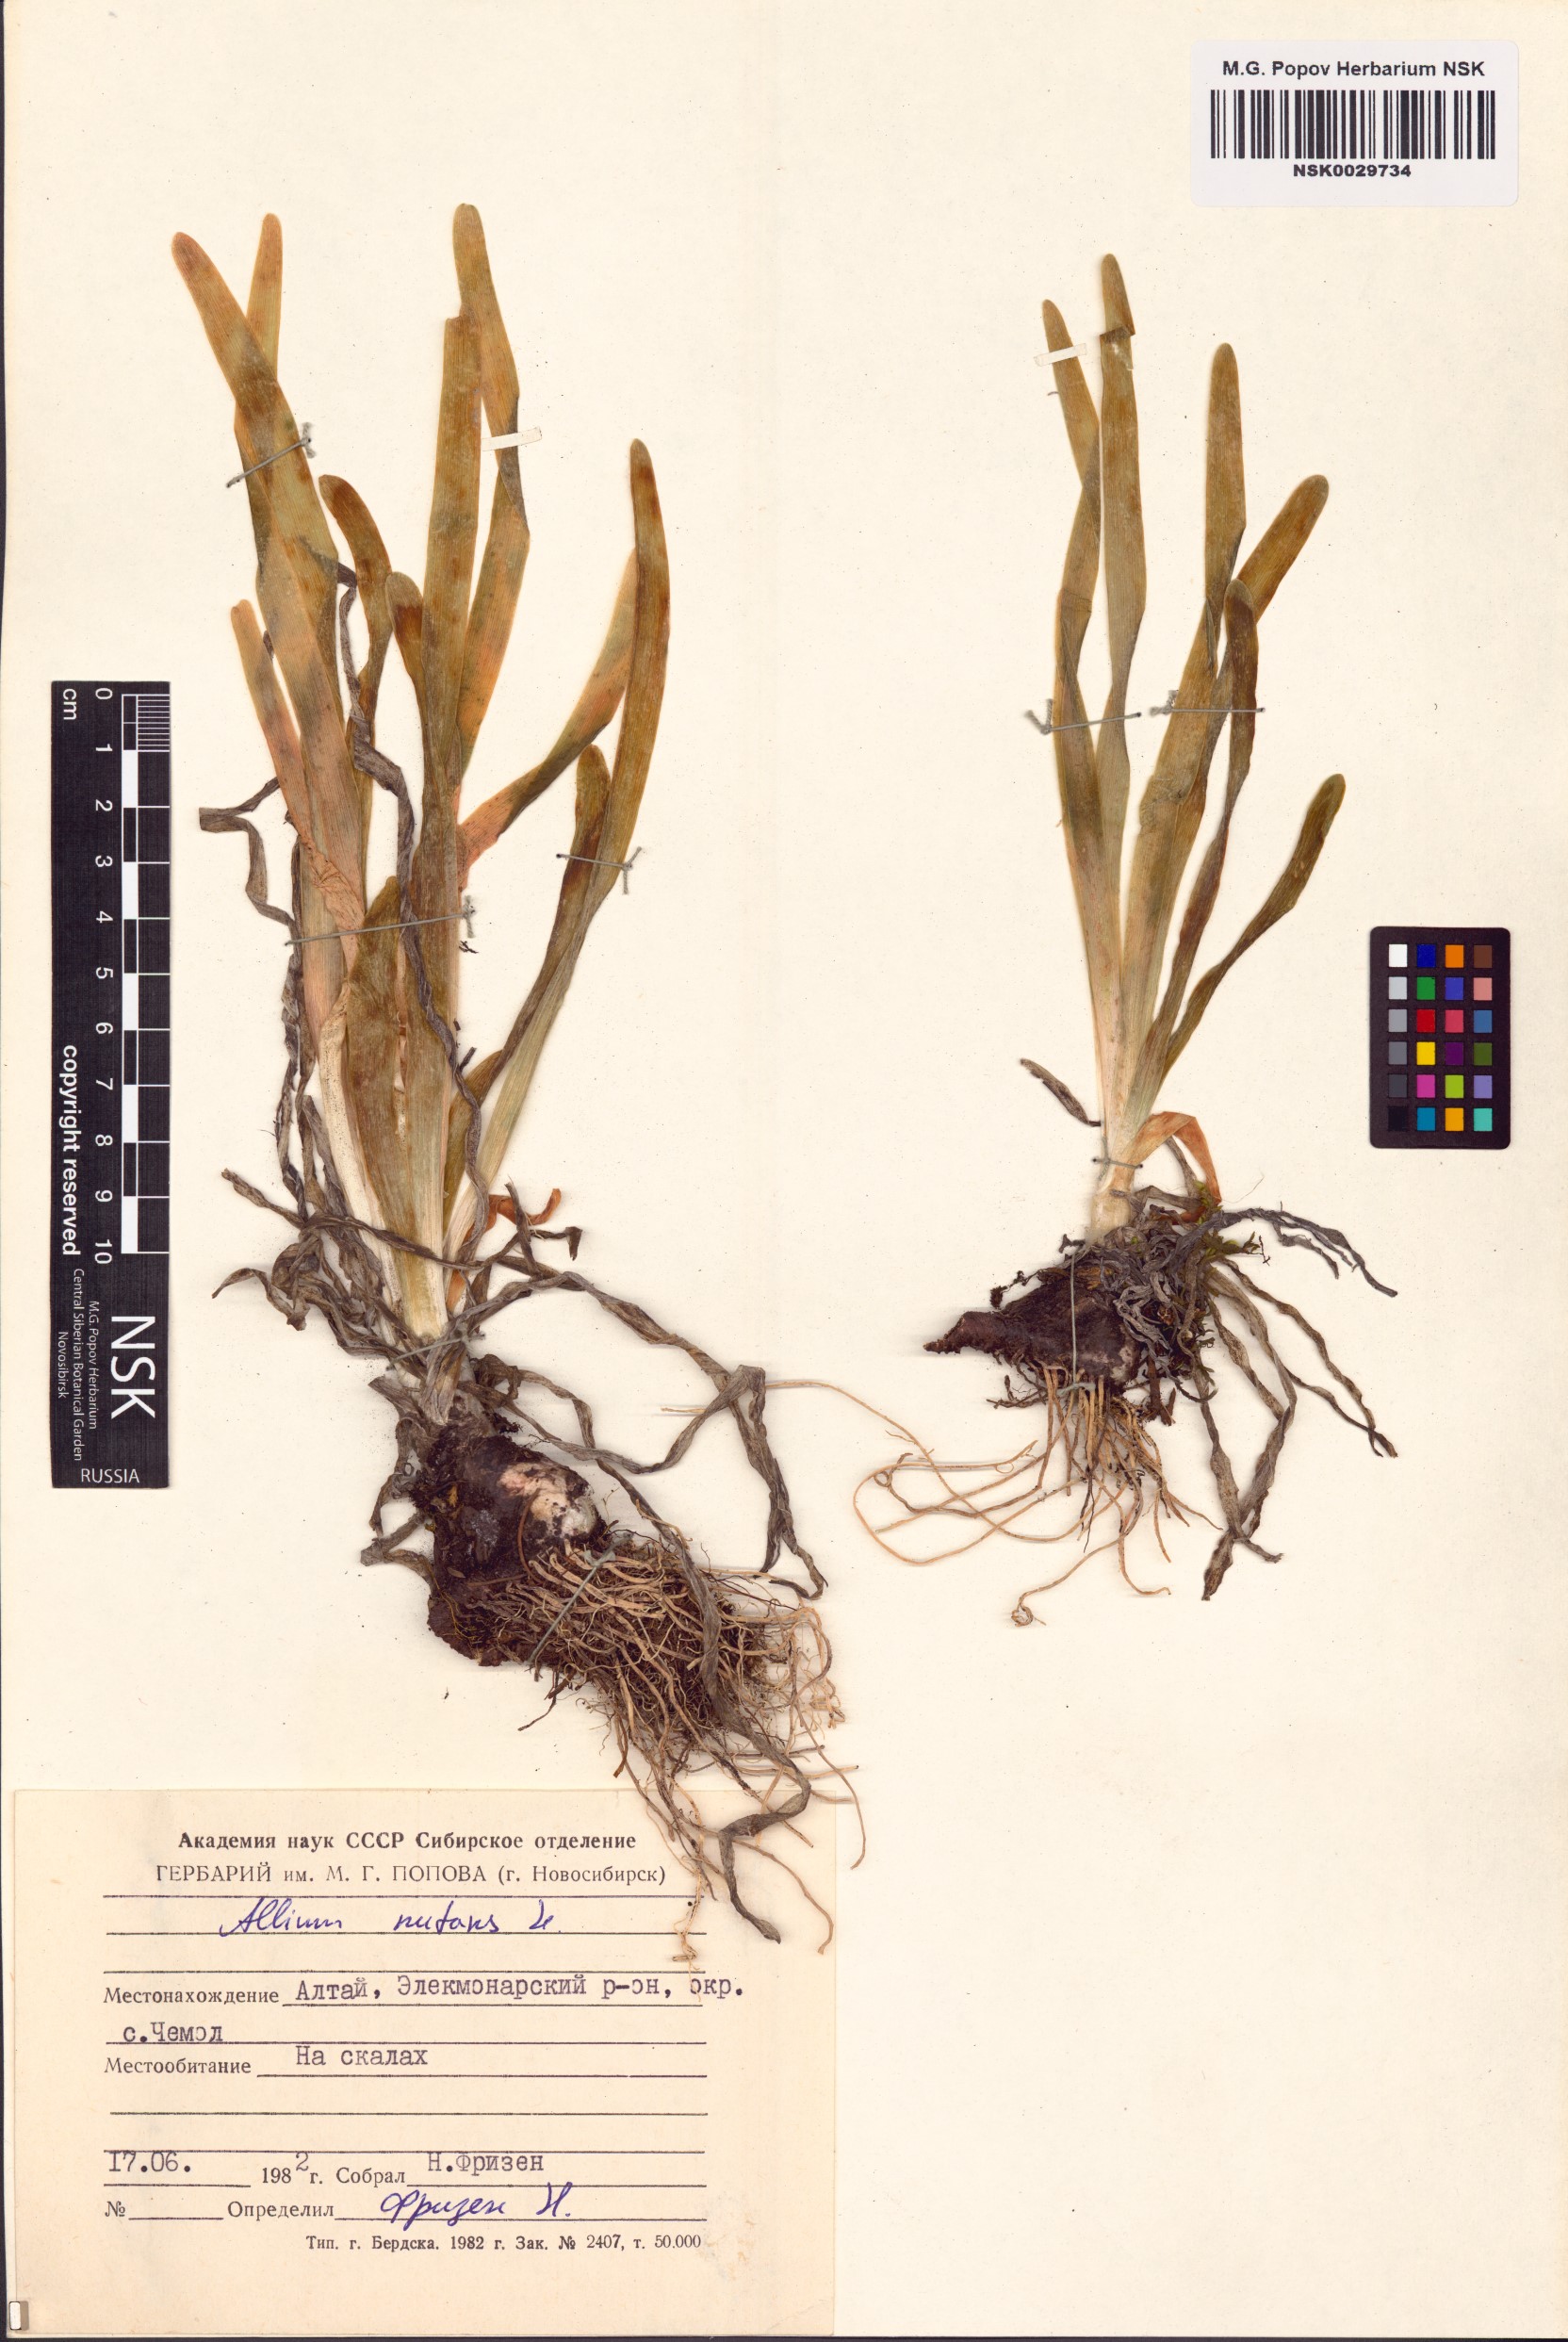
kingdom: Plantae
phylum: Tracheophyta
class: Liliopsida
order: Asparagales
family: Amaryllidaceae
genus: Allium
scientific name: Allium nutans
